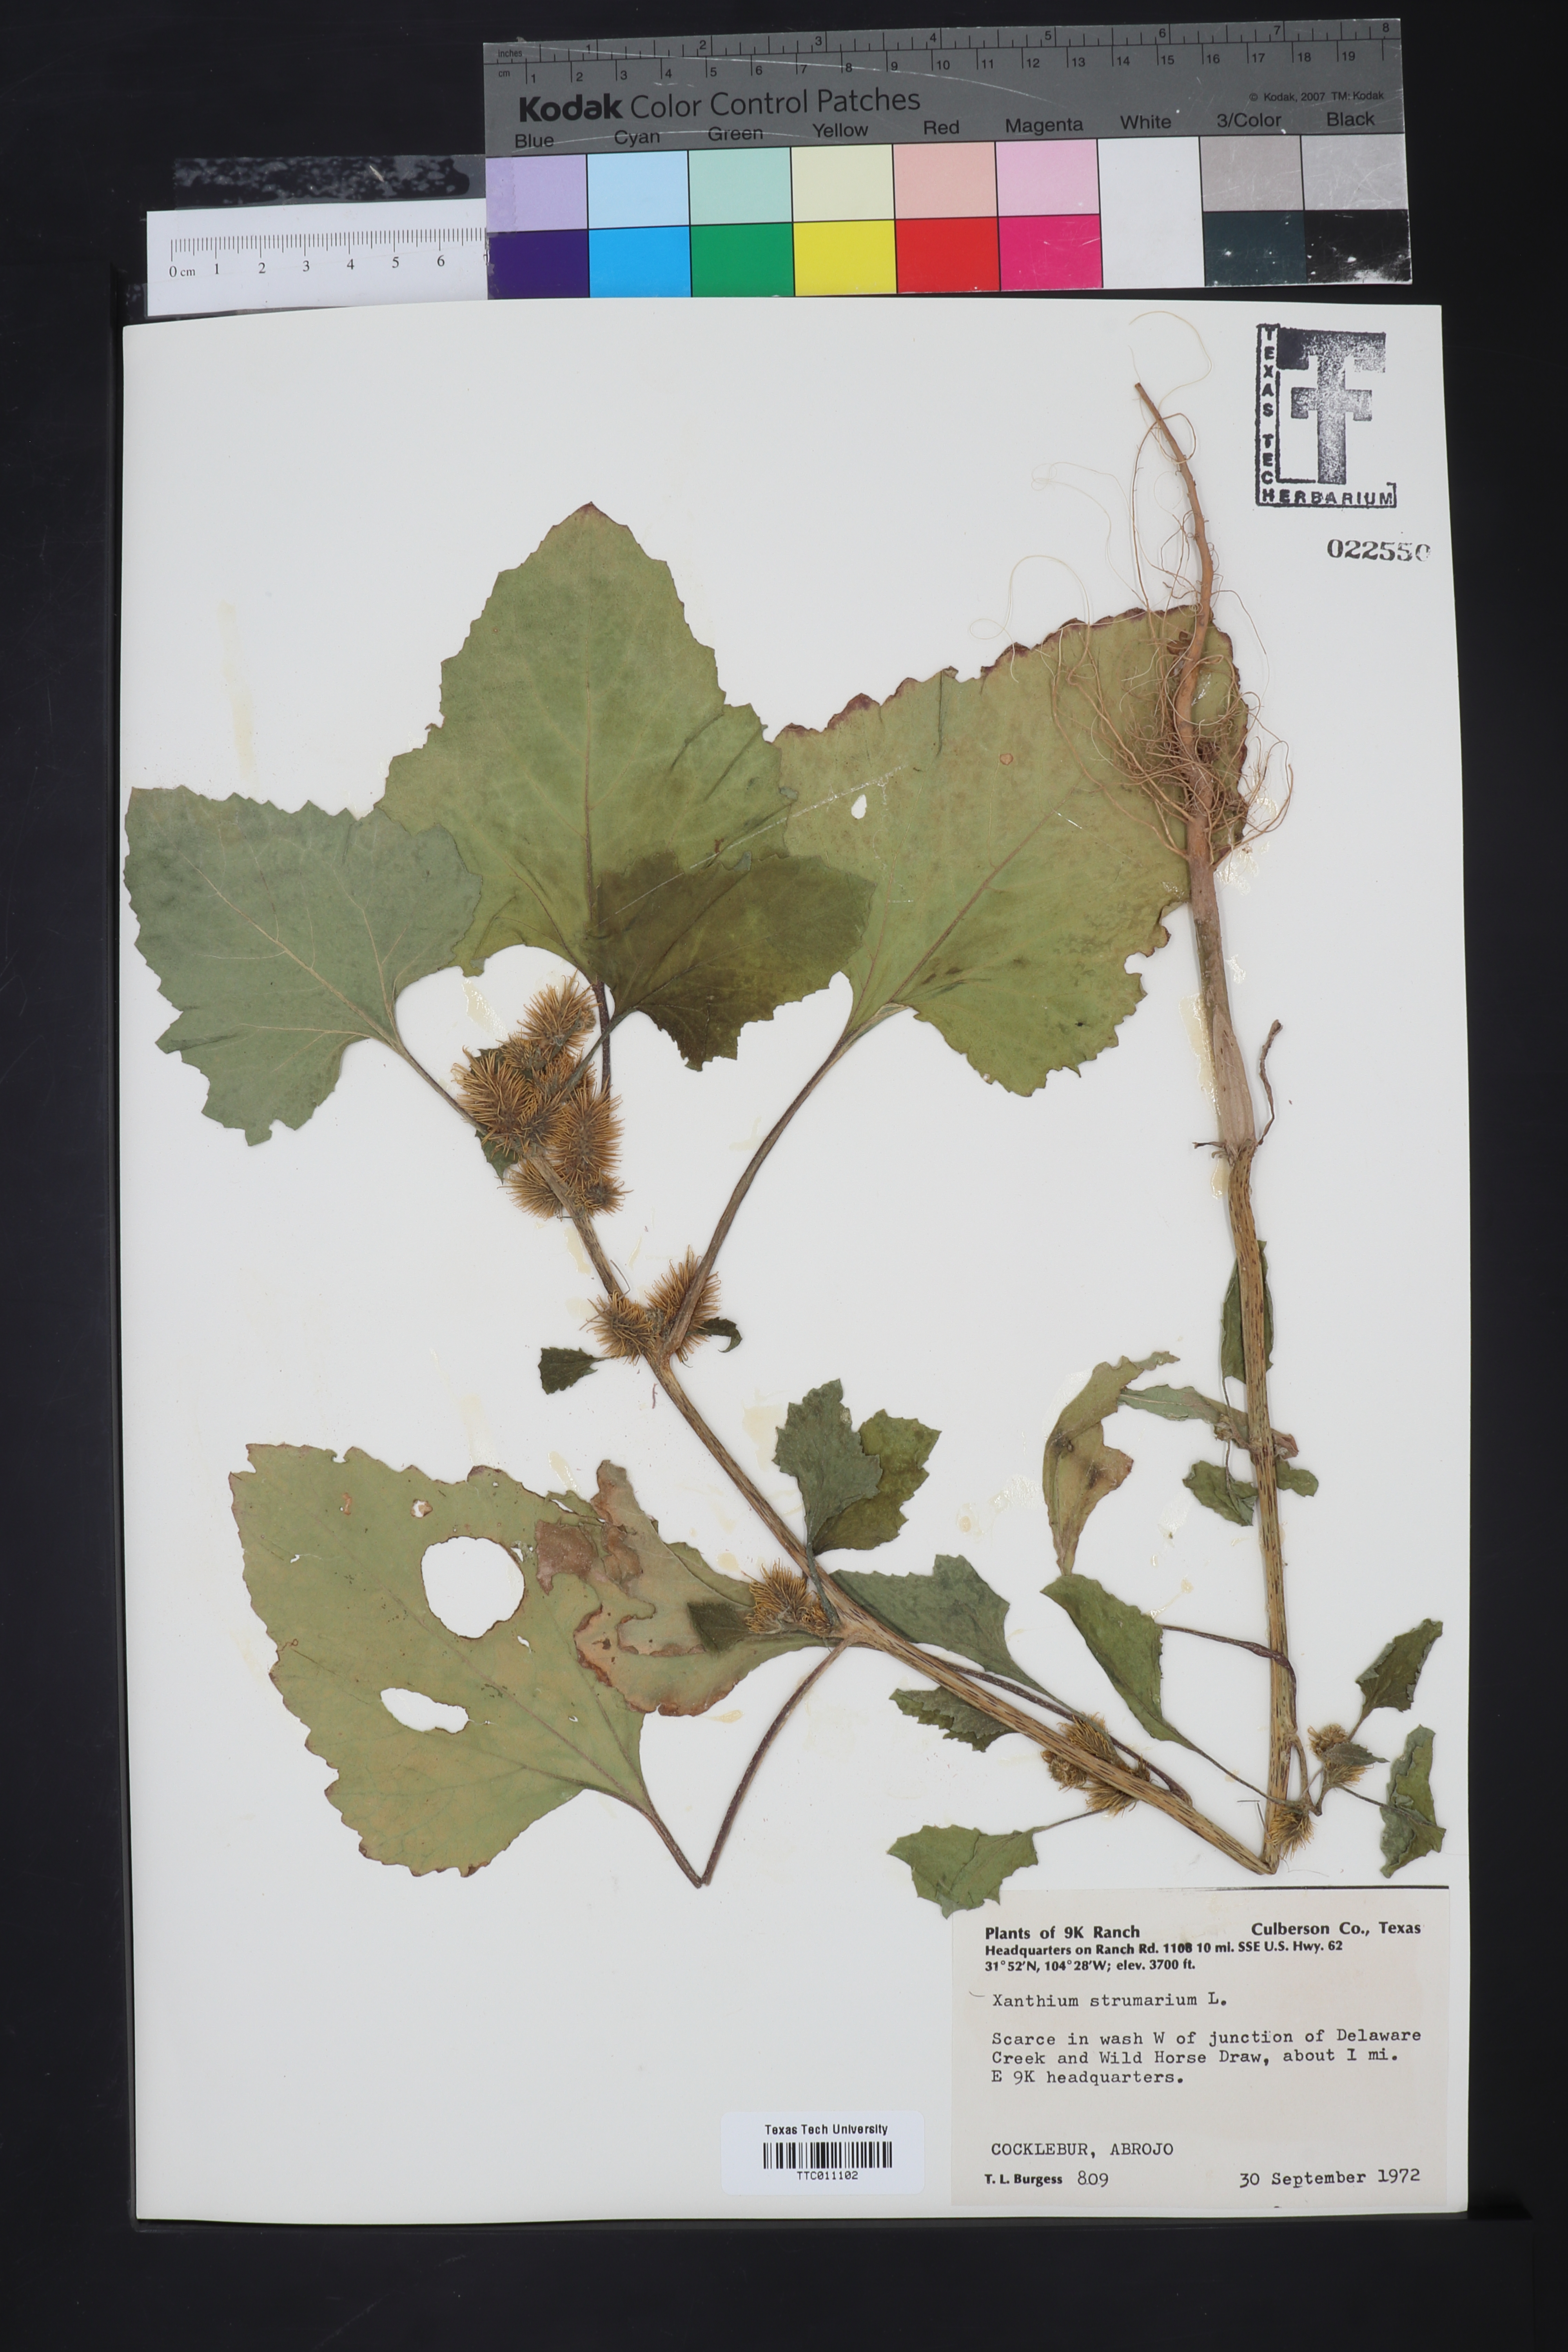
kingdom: Plantae
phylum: Tracheophyta
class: Magnoliopsida
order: Asterales
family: Asteraceae
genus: Xanthium
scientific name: Xanthium strumarium
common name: Rough cocklebur
